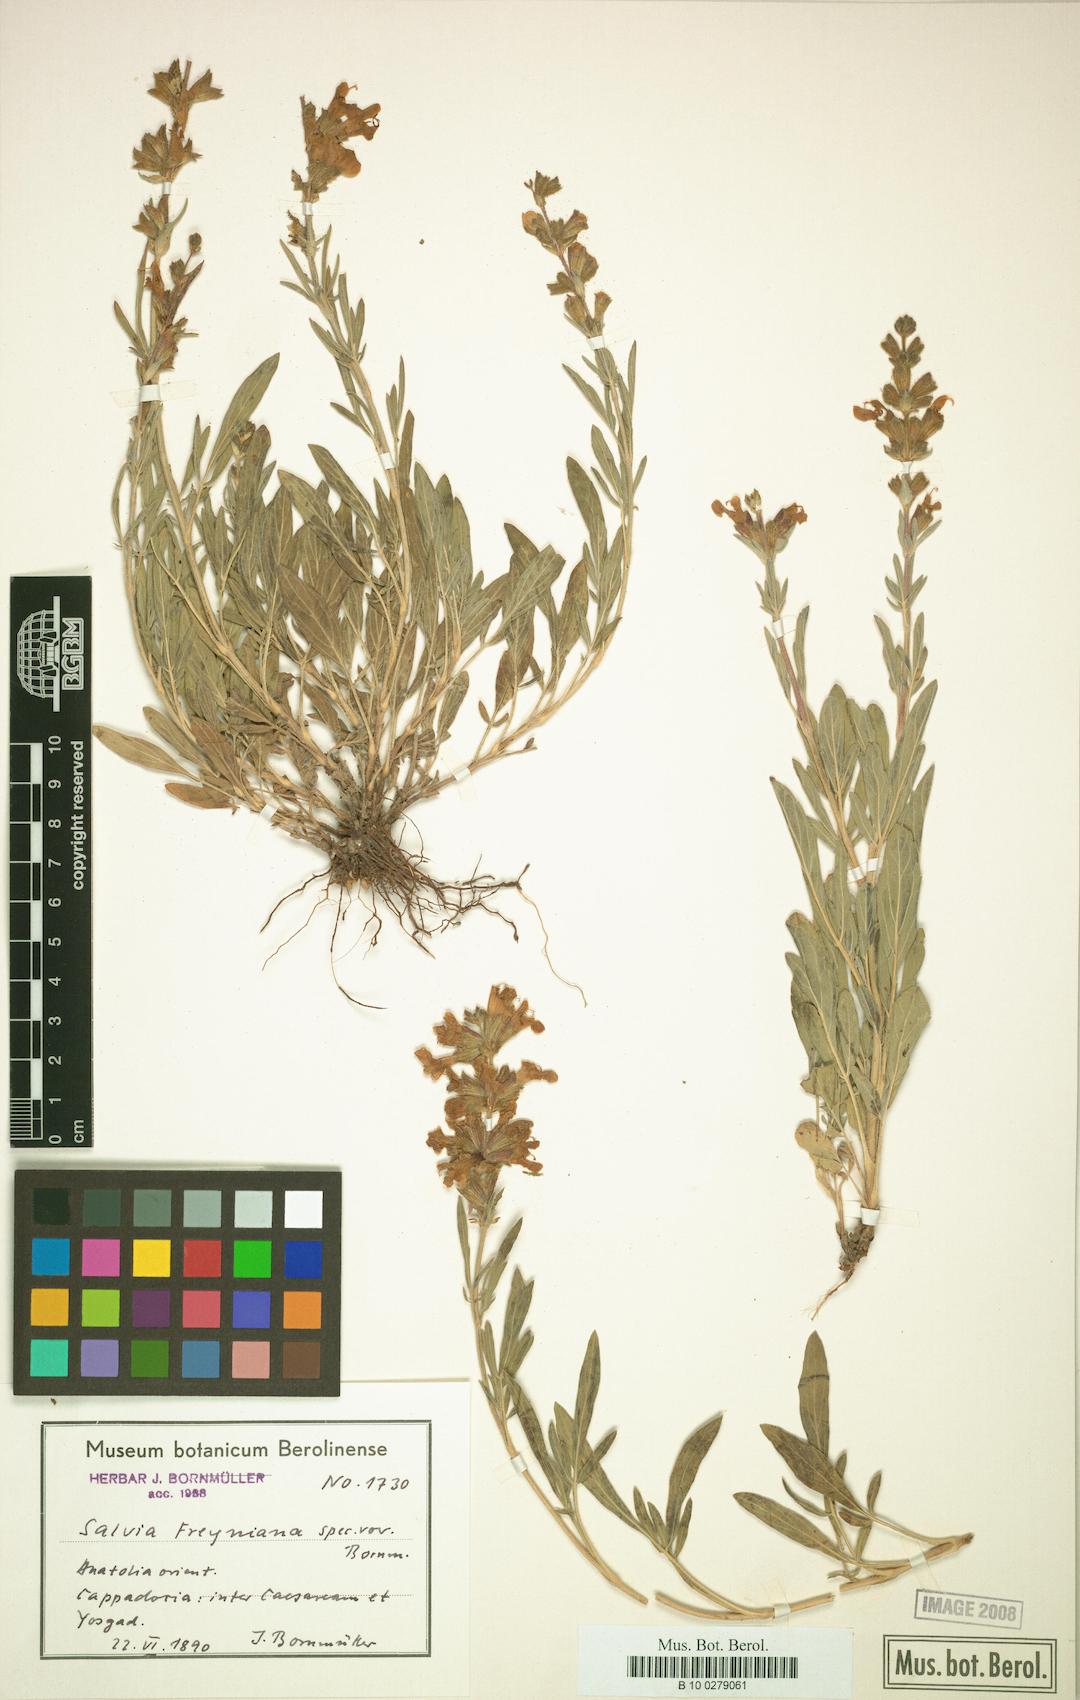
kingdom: Plantae
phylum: Tracheophyta
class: Magnoliopsida
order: Lamiales
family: Lamiaceae
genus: Salvia
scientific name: Salvia freyniana
